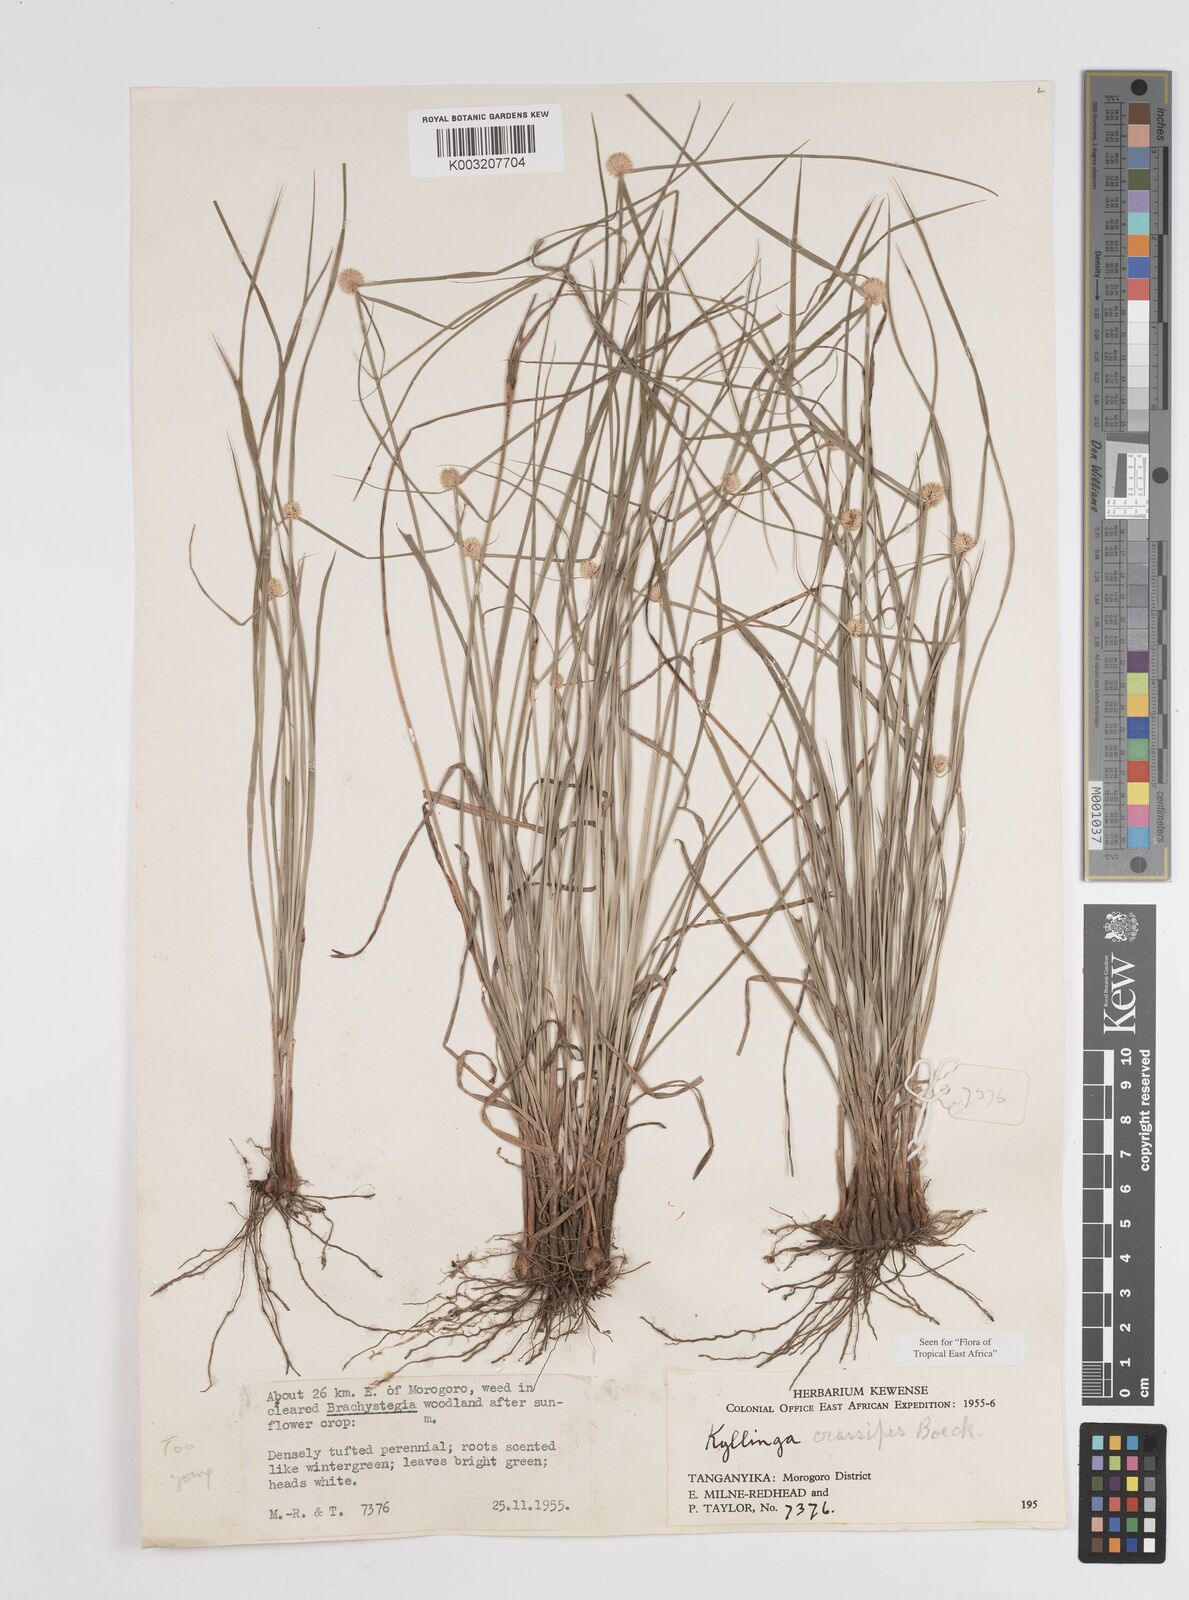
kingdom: Plantae
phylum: Tracheophyta
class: Liliopsida
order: Poales
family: Cyperaceae
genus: Cyperus
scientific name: Cyperus crassipes
